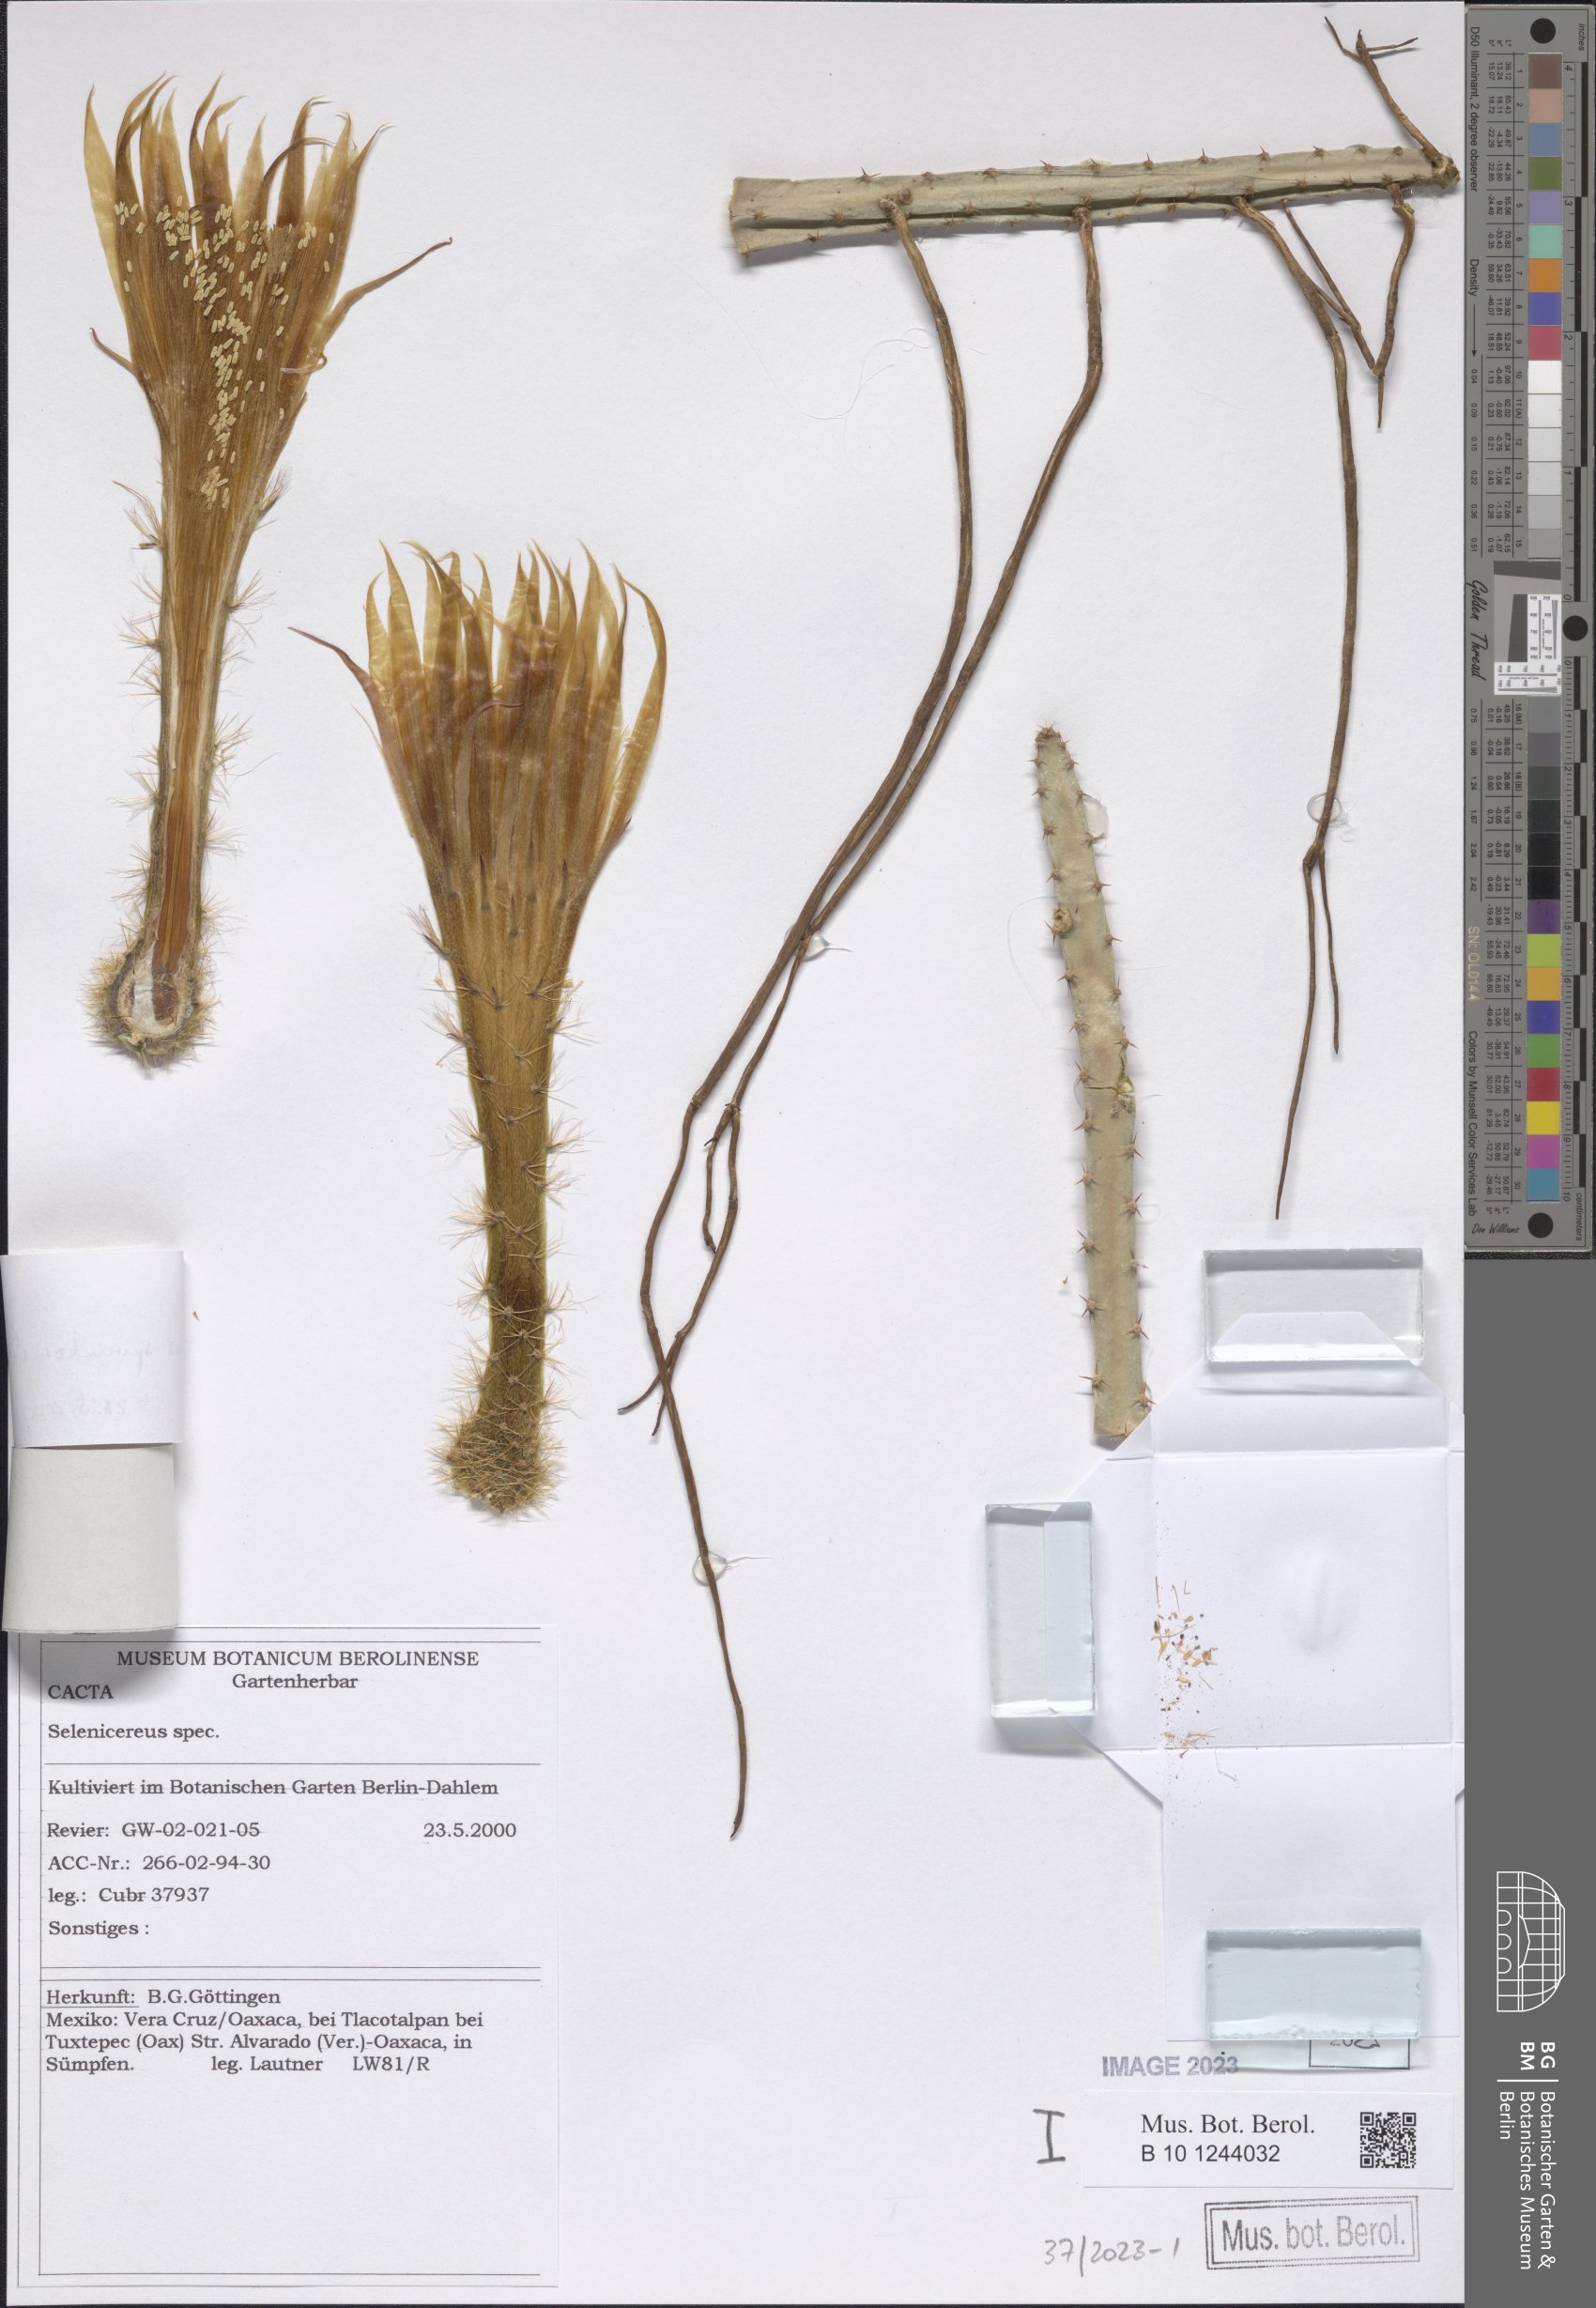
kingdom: Plantae
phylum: Tracheophyta
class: Magnoliopsida
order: Caryophyllales
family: Cactaceae
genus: Selenicereus
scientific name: Selenicereus spinulosus
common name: Nightblooming cereus
